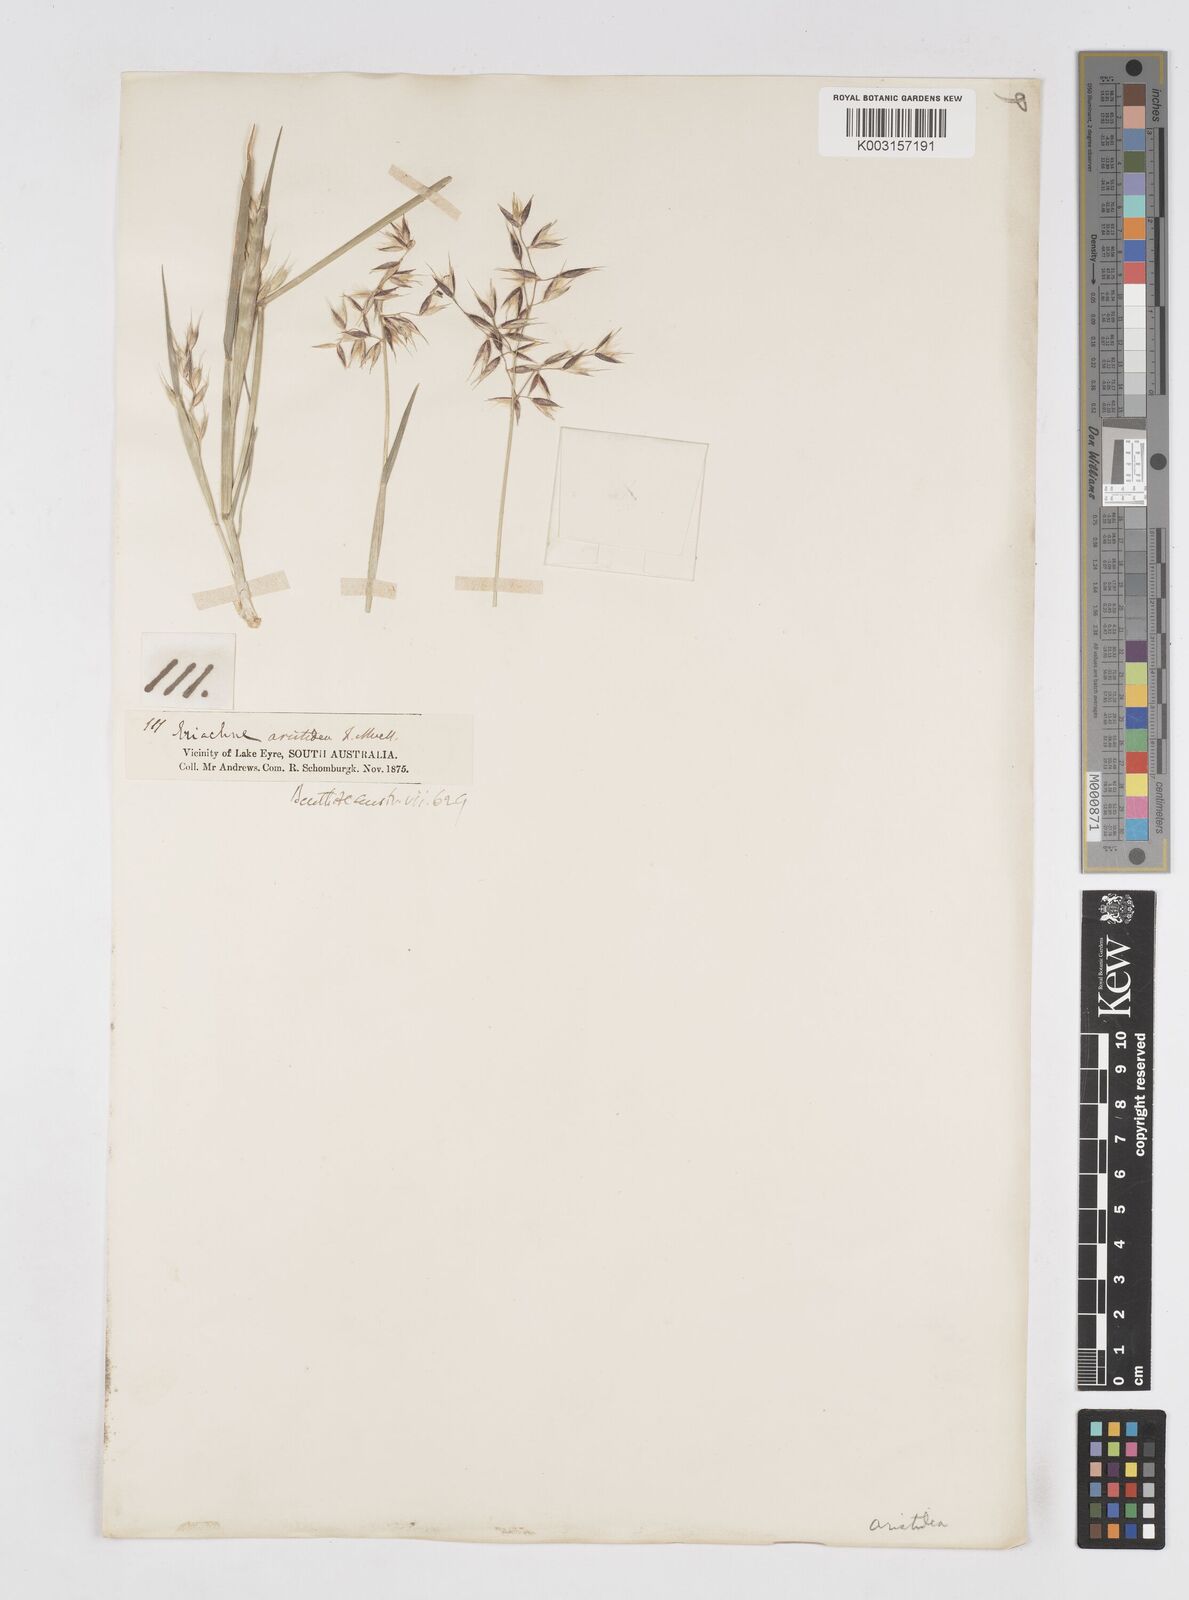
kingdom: Plantae
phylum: Tracheophyta
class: Liliopsida
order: Poales
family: Poaceae
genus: Eriachne
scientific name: Eriachne aristidea
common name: Three-awn wanderrie grass
